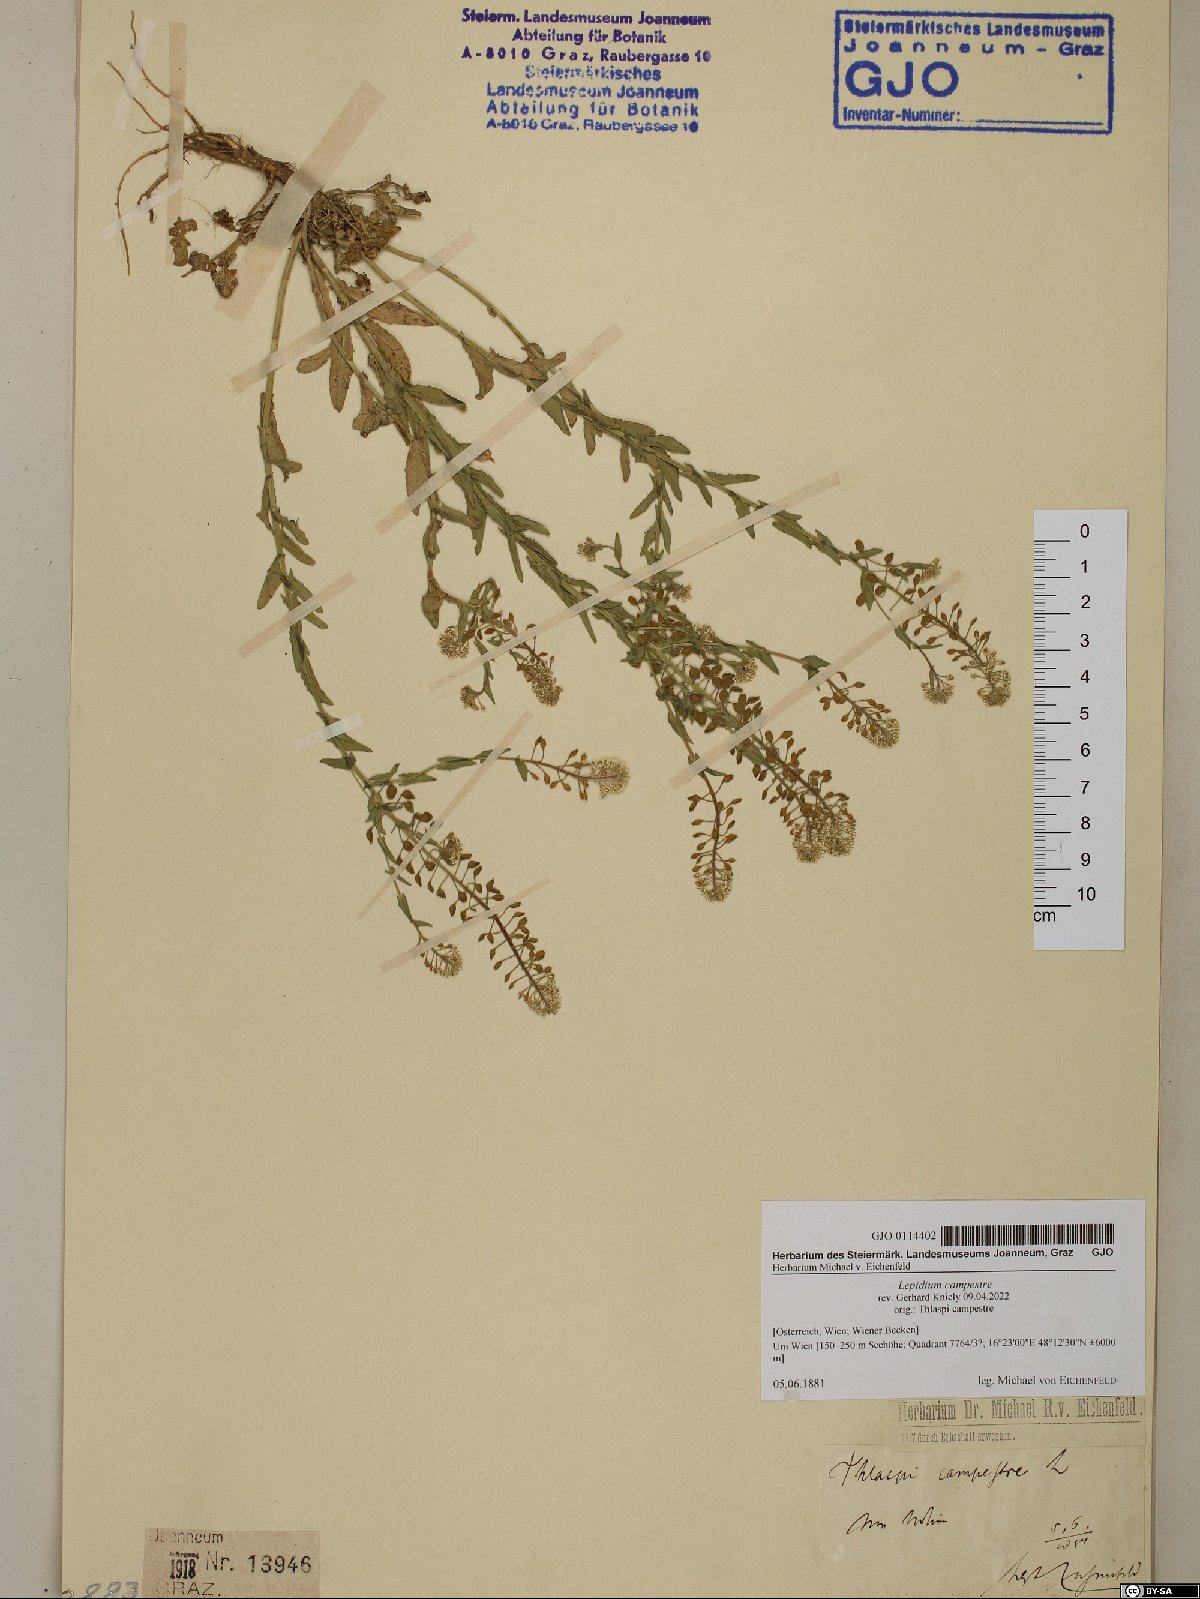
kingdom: Plantae
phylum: Tracheophyta
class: Magnoliopsida
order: Brassicales
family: Brassicaceae
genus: Lepidium
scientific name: Lepidium campestre
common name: Field pepperwort
